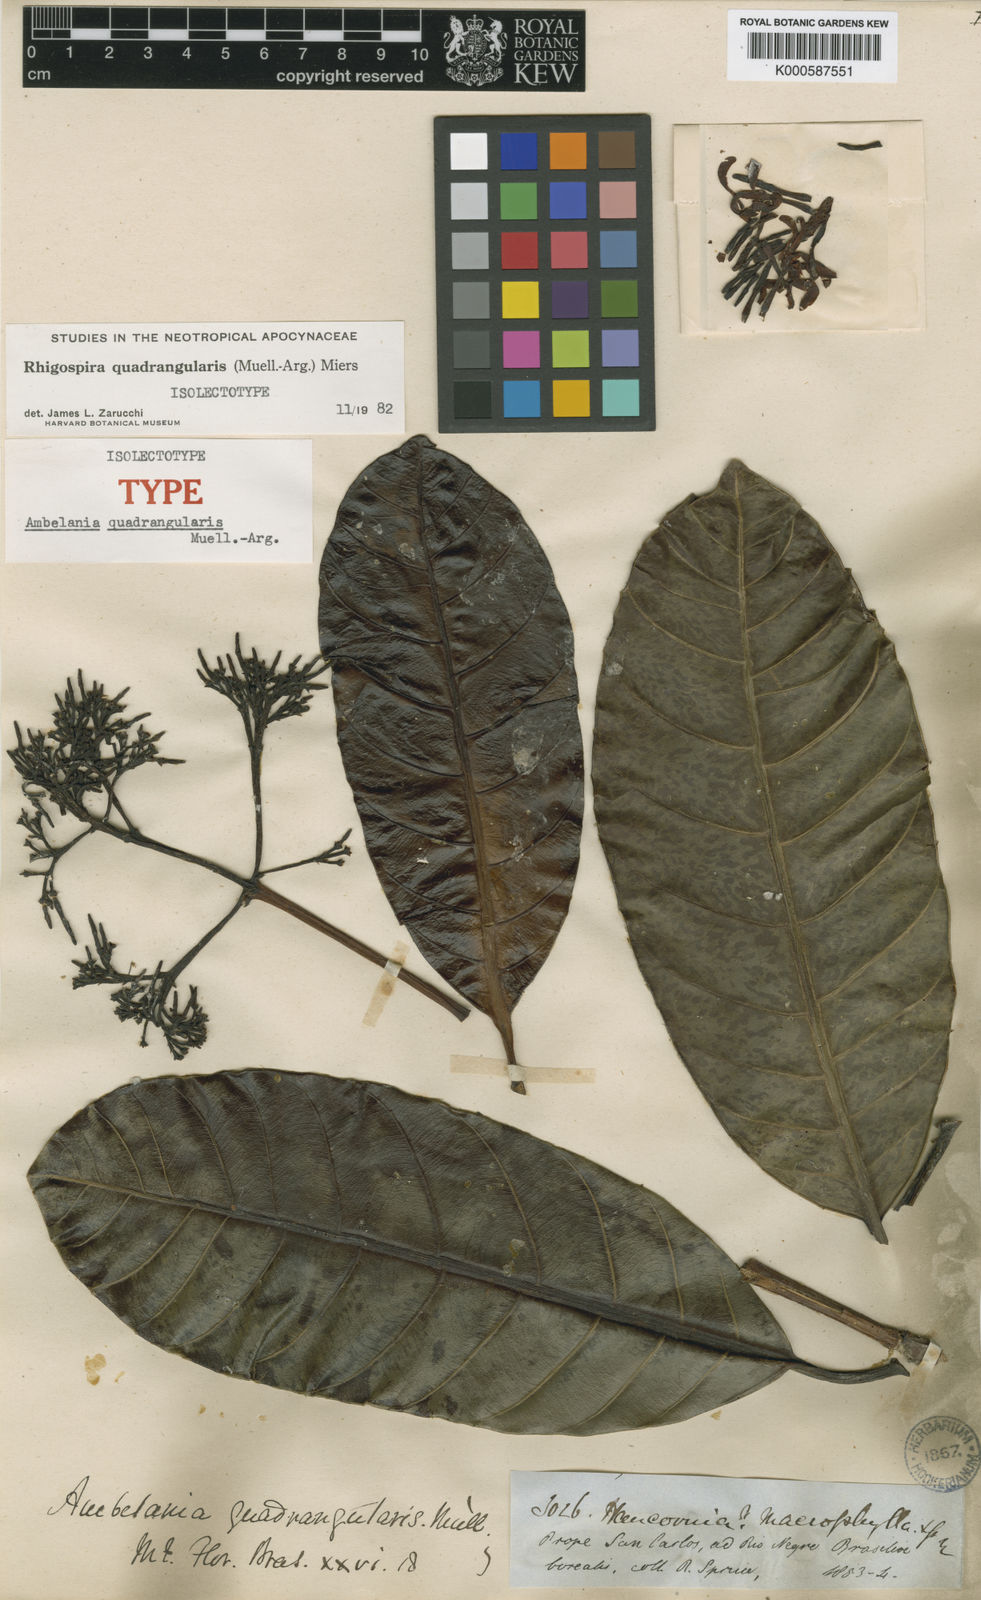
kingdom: Plantae
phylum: Tracheophyta
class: Magnoliopsida
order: Gentianales
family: Apocynaceae
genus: Rhigospira
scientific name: Rhigospira
